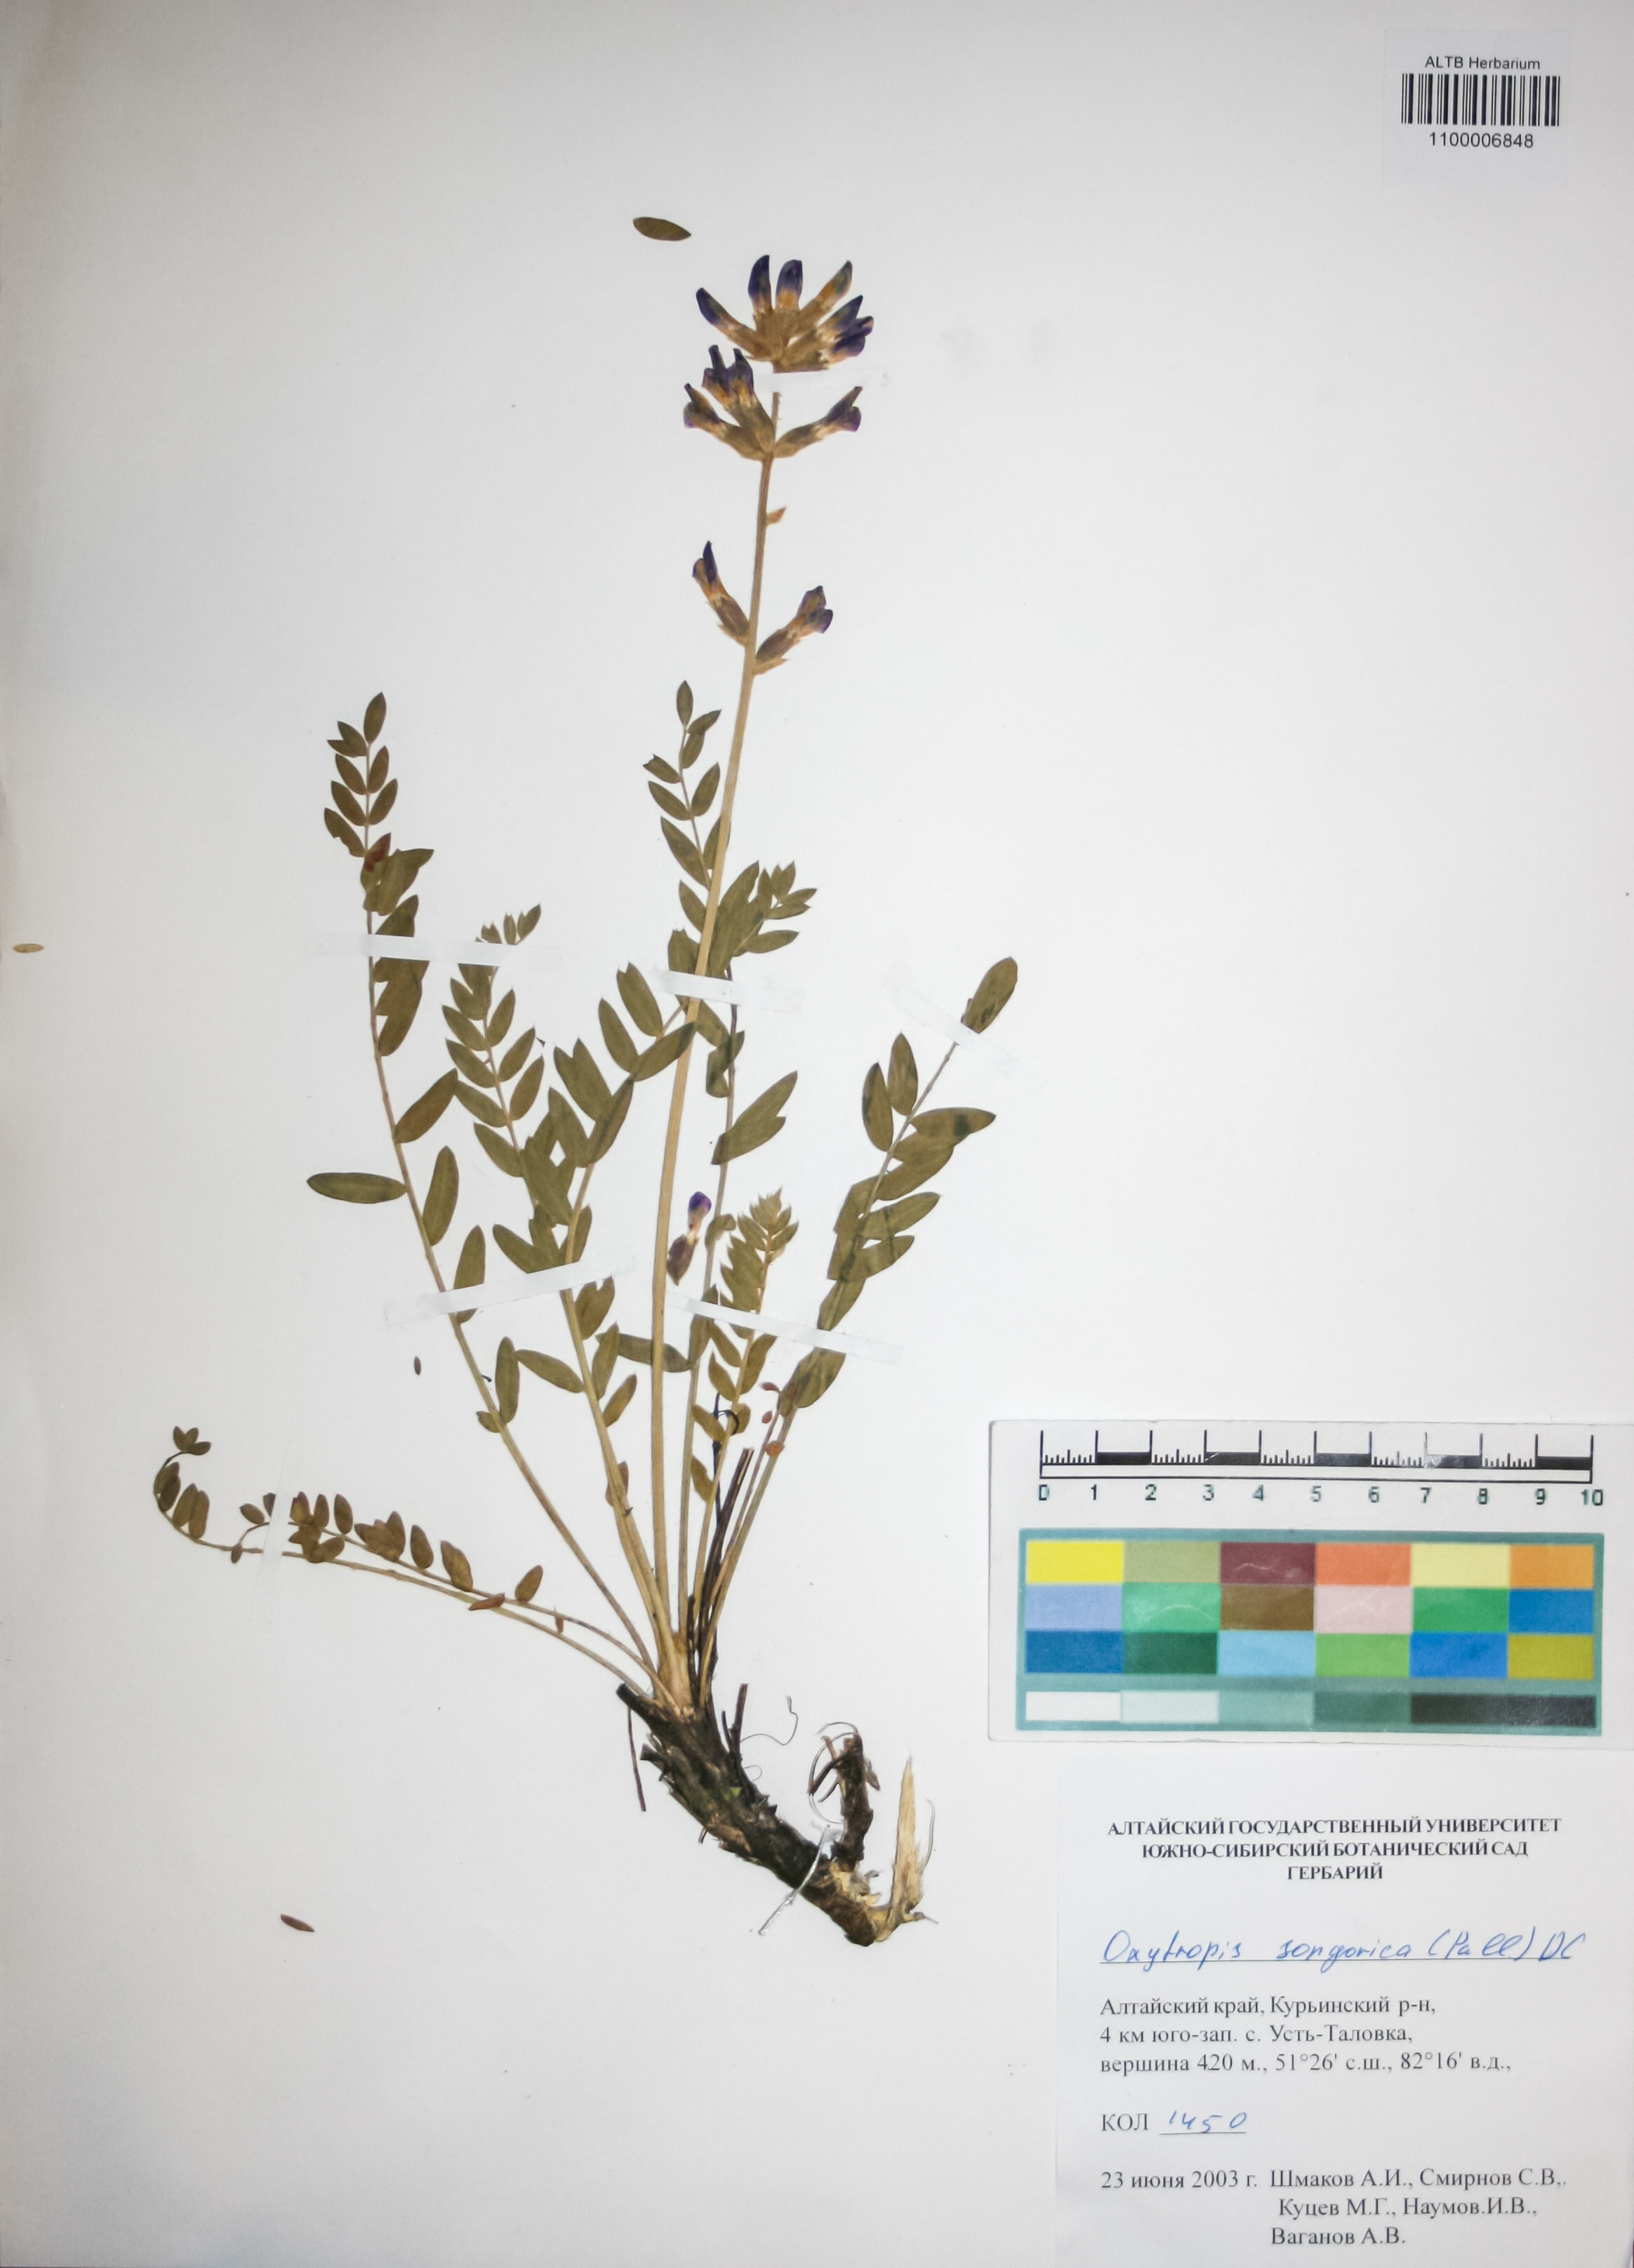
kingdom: Plantae
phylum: Tracheophyta
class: Magnoliopsida
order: Fabales
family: Fabaceae
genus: Oxytropis
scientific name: Oxytropis songorica
